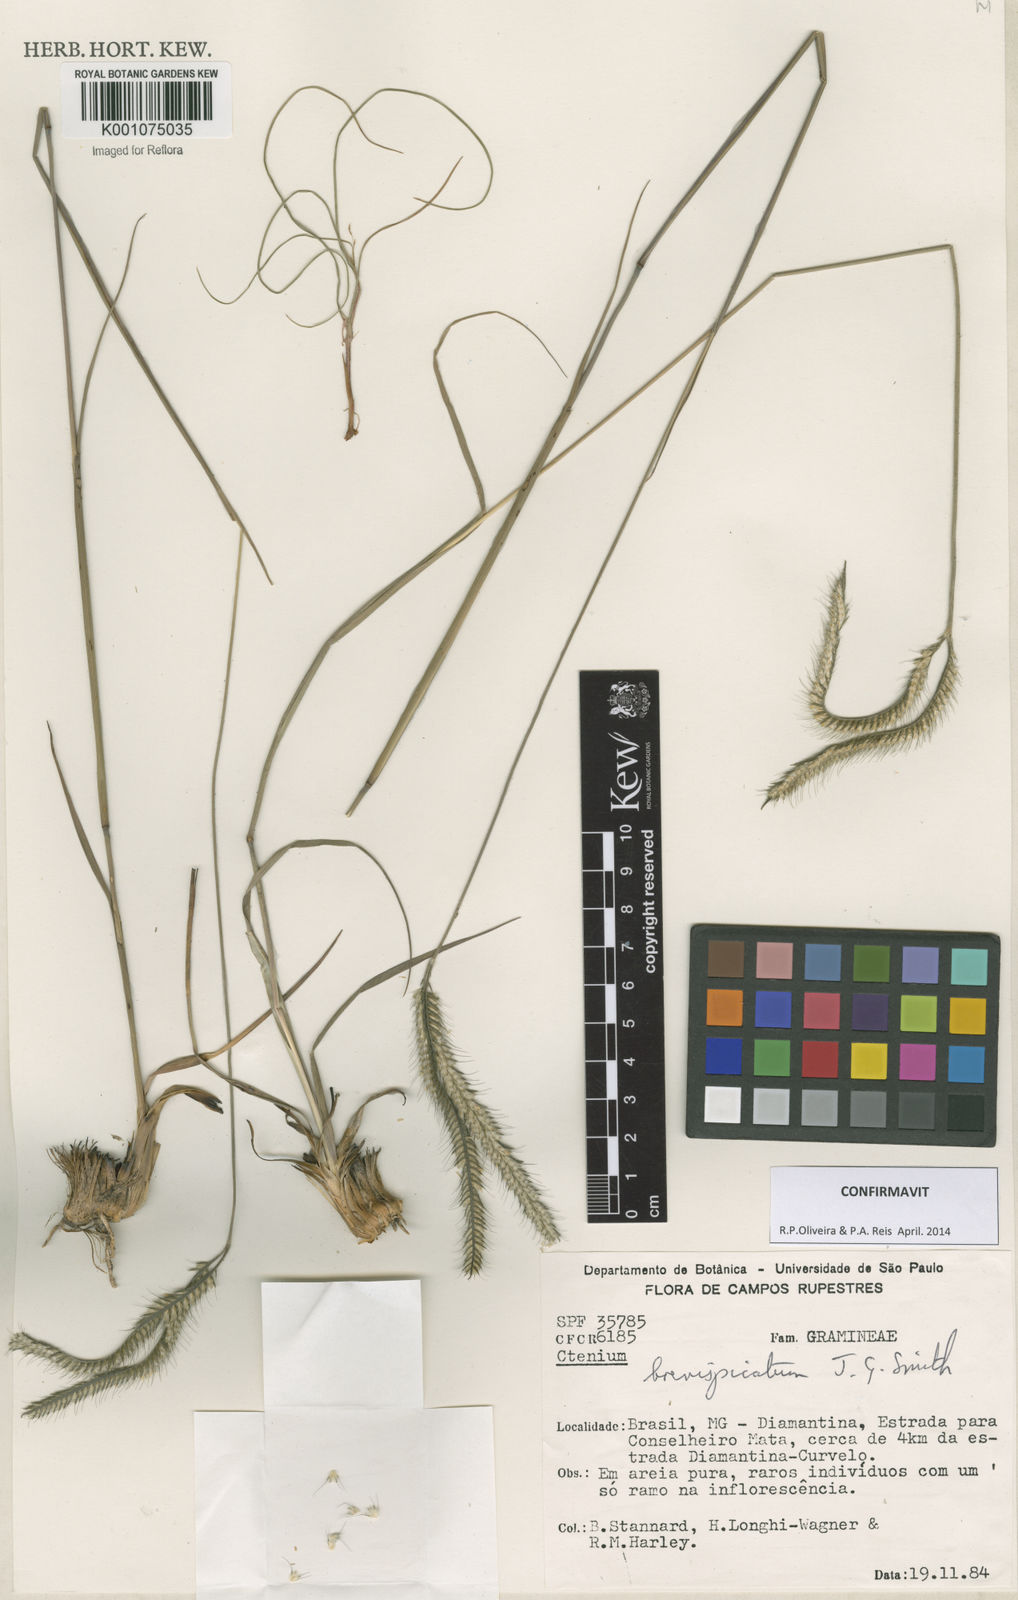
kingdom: Plantae
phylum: Tracheophyta
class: Liliopsida
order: Poales
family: Poaceae
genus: Ctenium
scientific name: Ctenium brevispicatum
